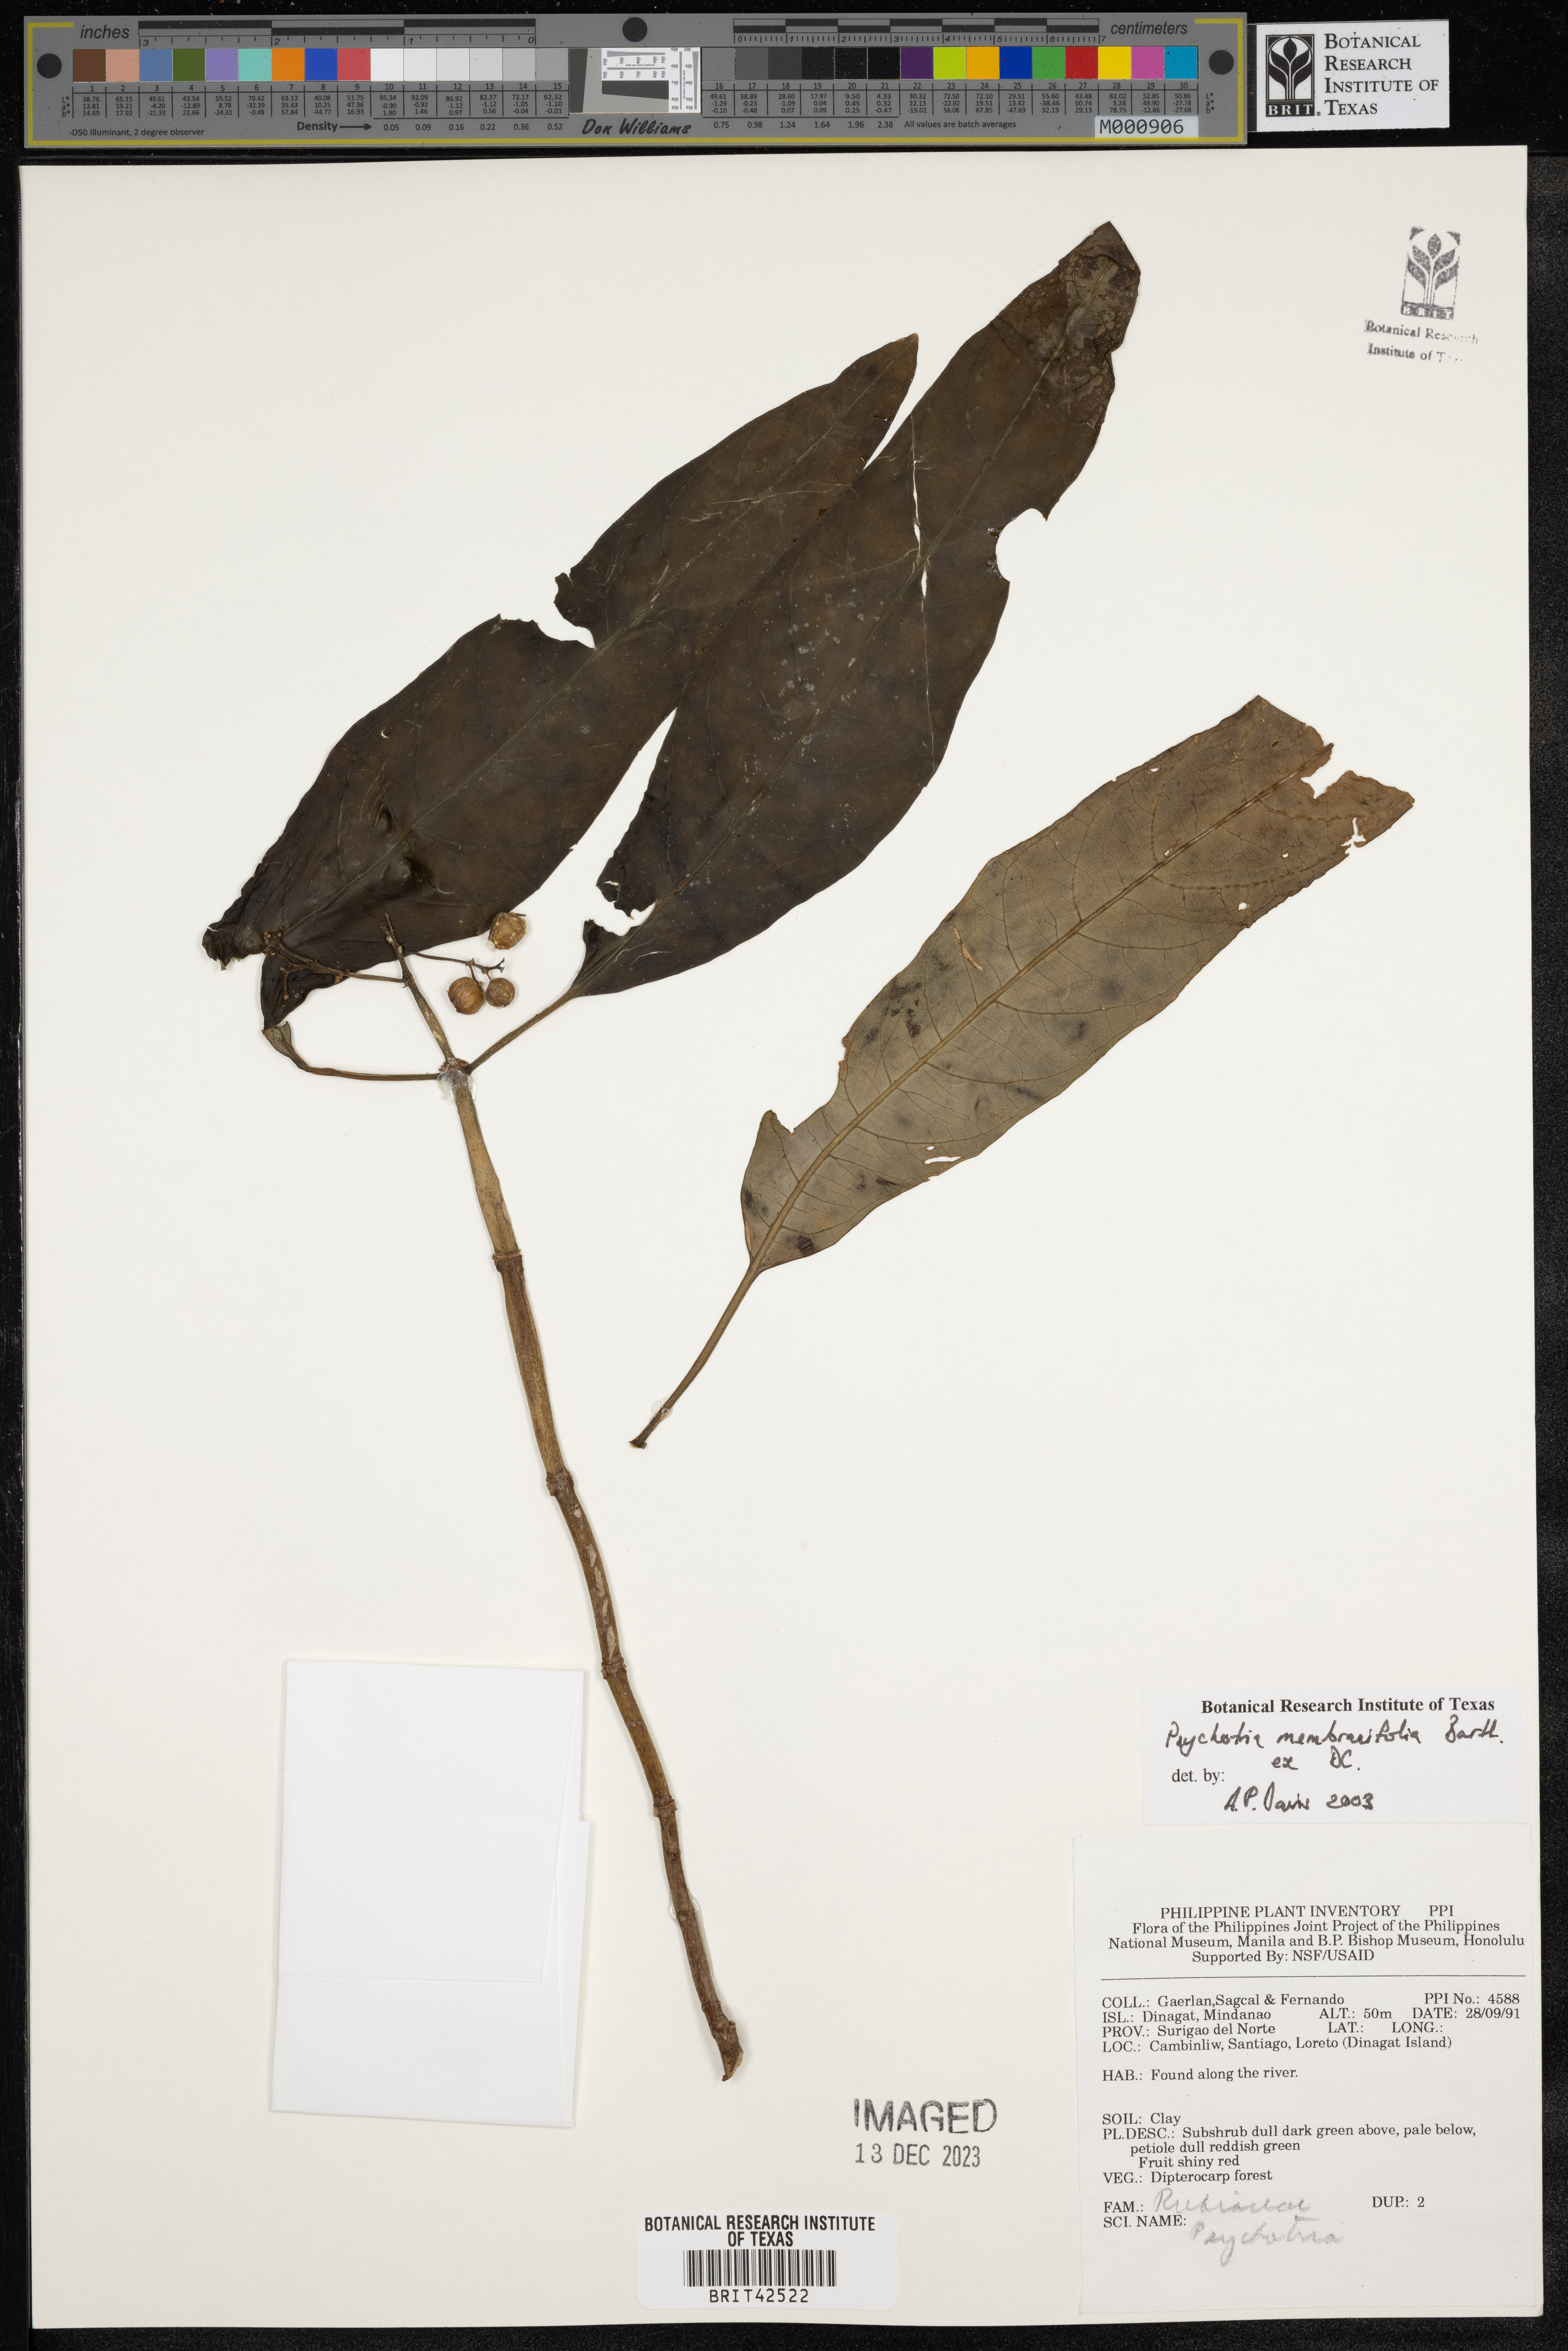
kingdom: Plantae
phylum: Tracheophyta
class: Magnoliopsida
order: Gentianales
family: Rubiaceae
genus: Eumachia
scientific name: Eumachia membranifolia
